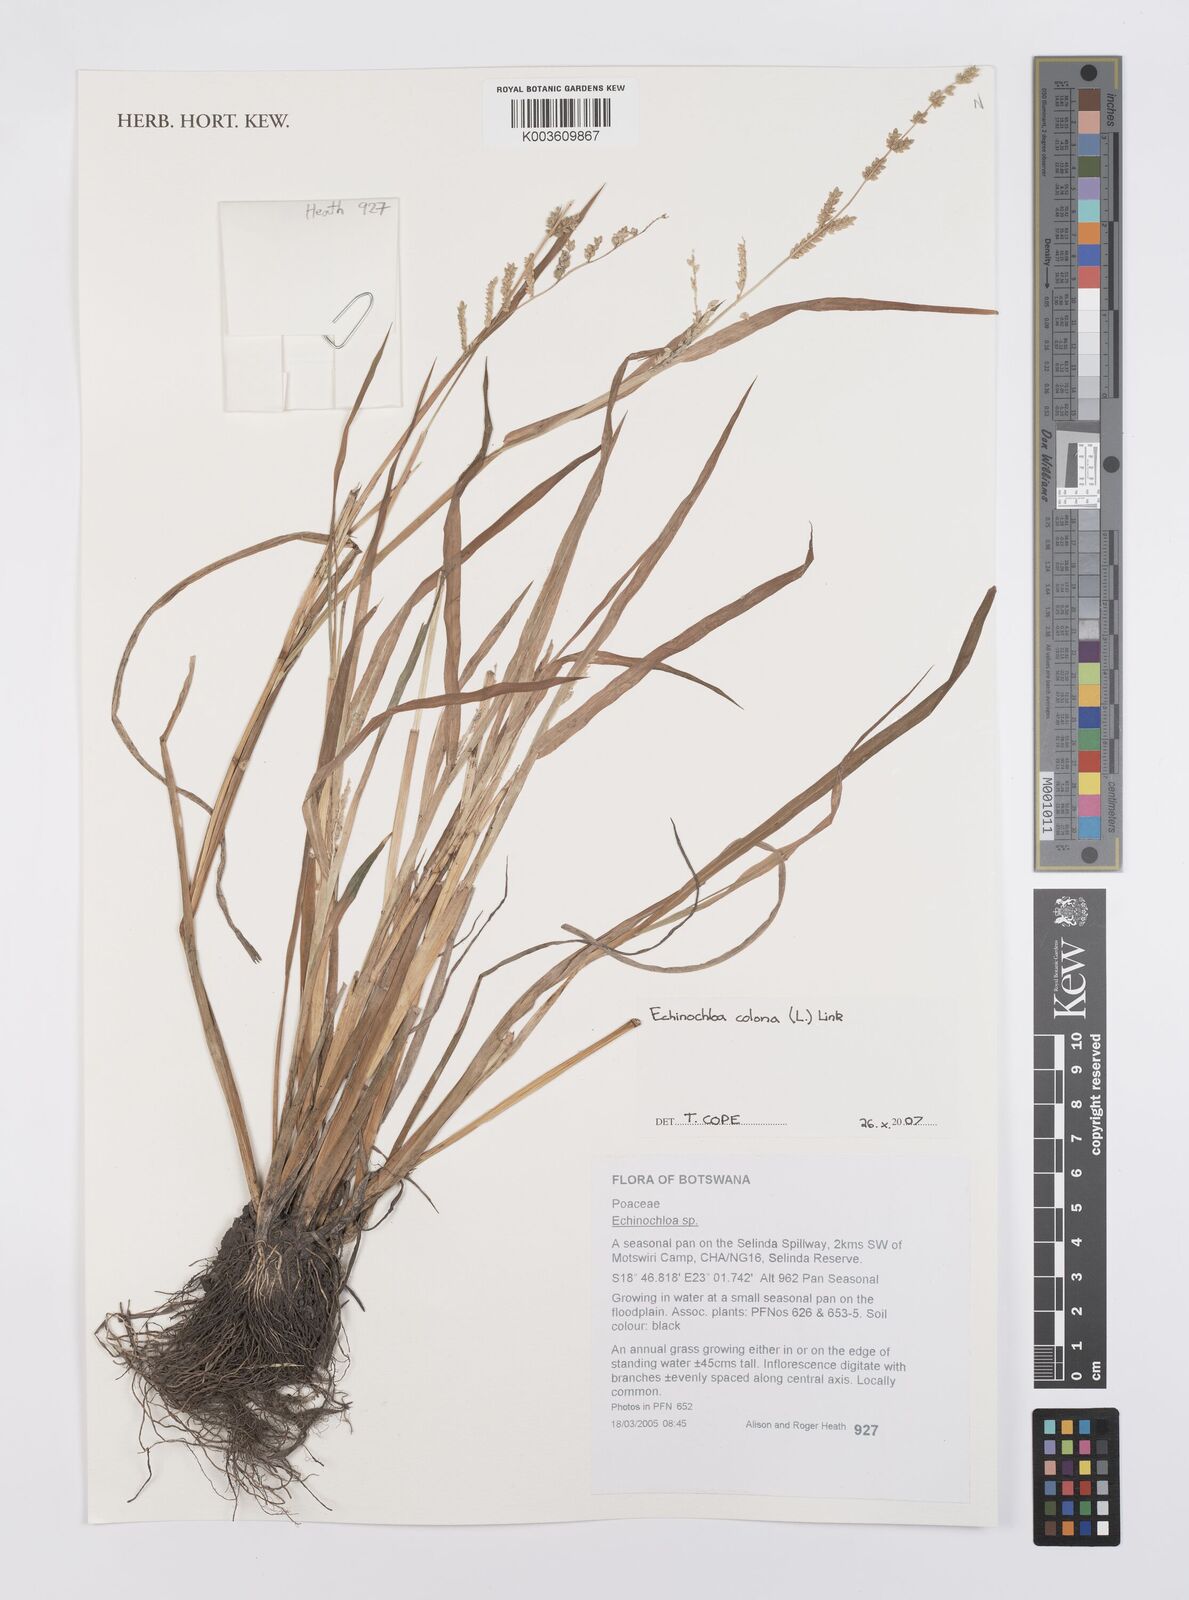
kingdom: Plantae
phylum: Tracheophyta
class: Liliopsida
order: Poales
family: Poaceae
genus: Echinochloa
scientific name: Echinochloa colonum
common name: Jungle rice
